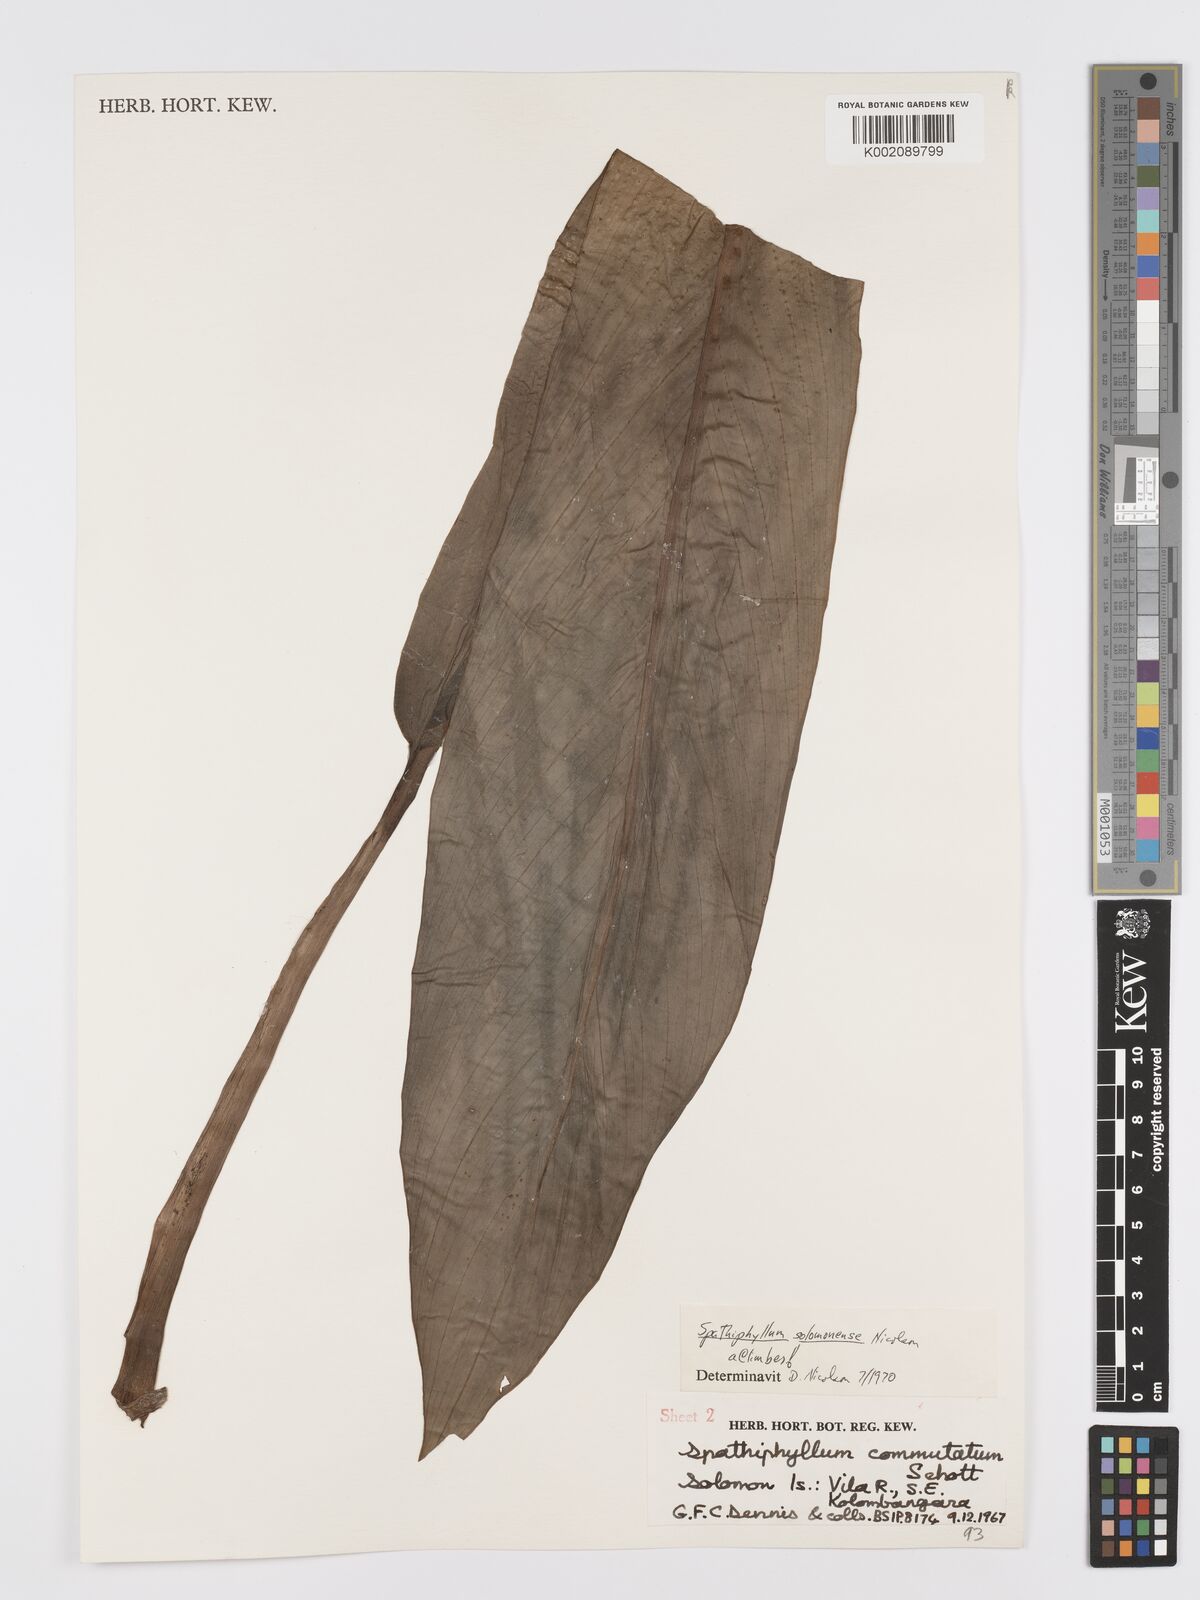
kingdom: Plantae
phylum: Tracheophyta
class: Liliopsida
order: Alismatales
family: Araceae
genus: Spathiphyllum
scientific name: Spathiphyllum solomonense
